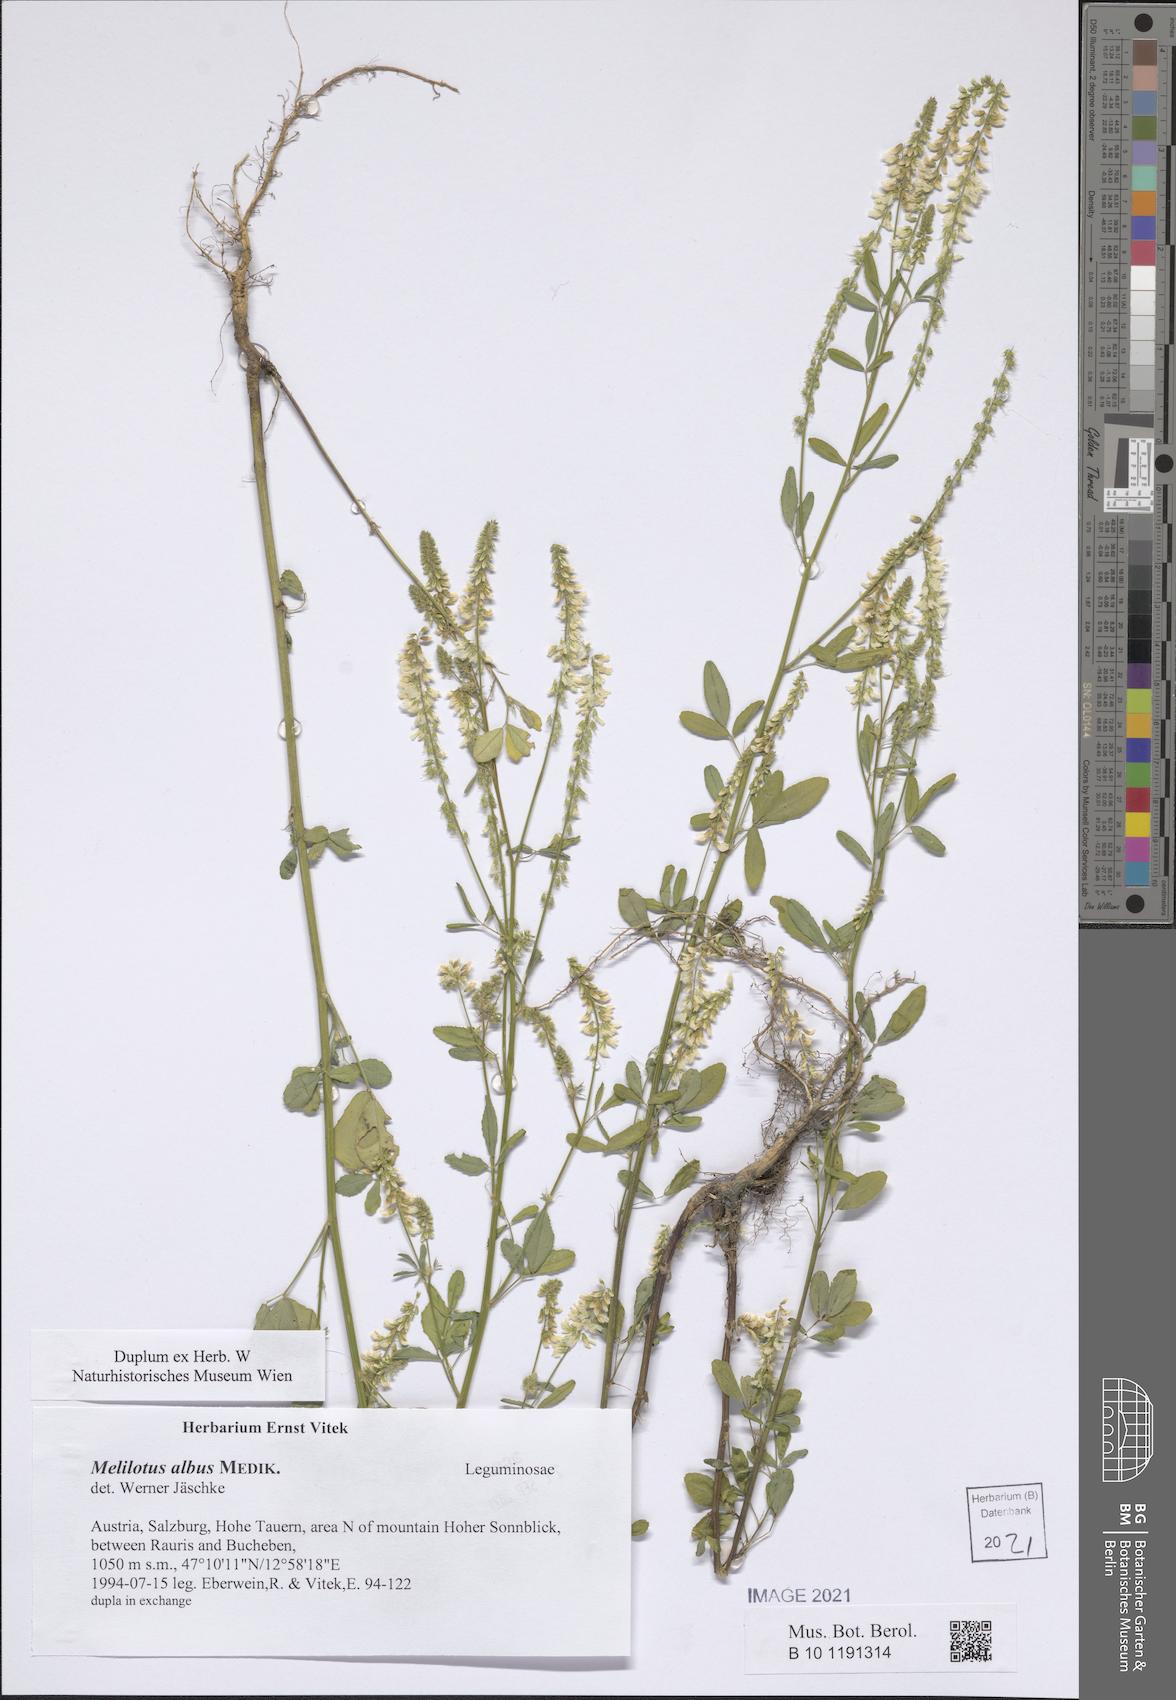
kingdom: Plantae
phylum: Tracheophyta
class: Magnoliopsida
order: Fabales
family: Fabaceae
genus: Melilotus
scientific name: Melilotus albus
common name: White melilot
